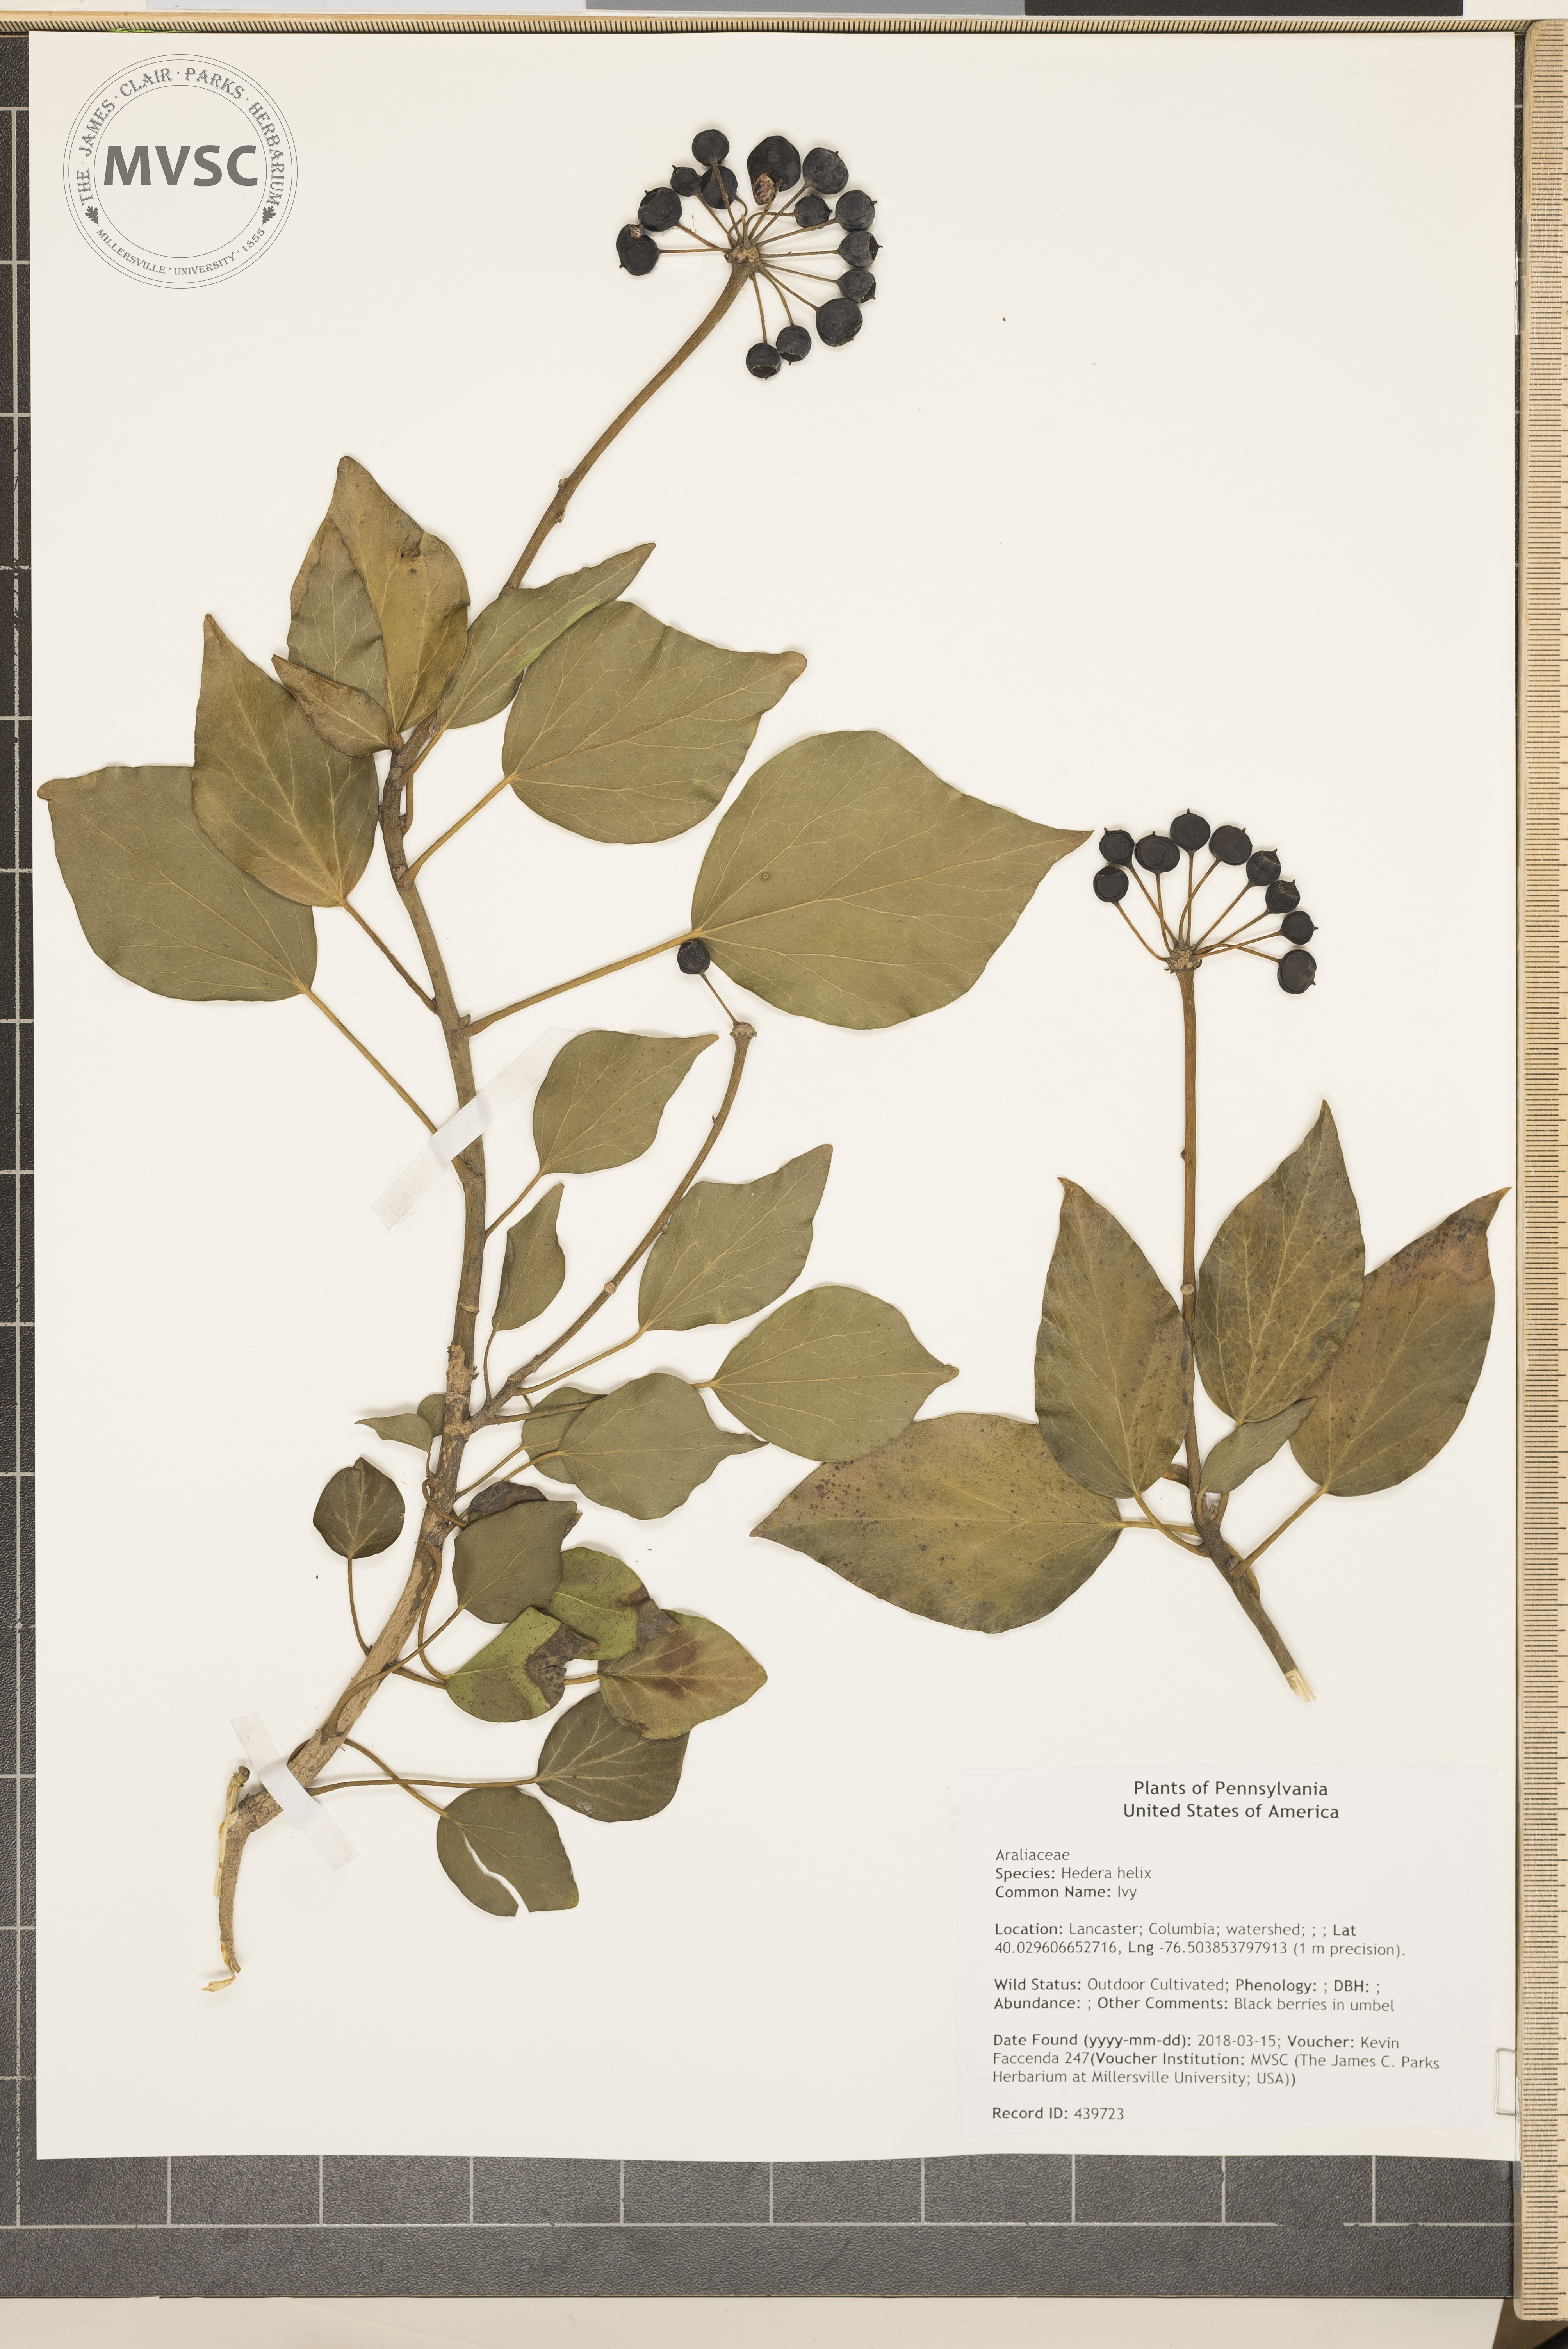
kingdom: Plantae
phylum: Tracheophyta
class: Magnoliopsida
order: Apiales
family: Araliaceae
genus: Hedera
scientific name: Hedera helix
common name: Ivy
